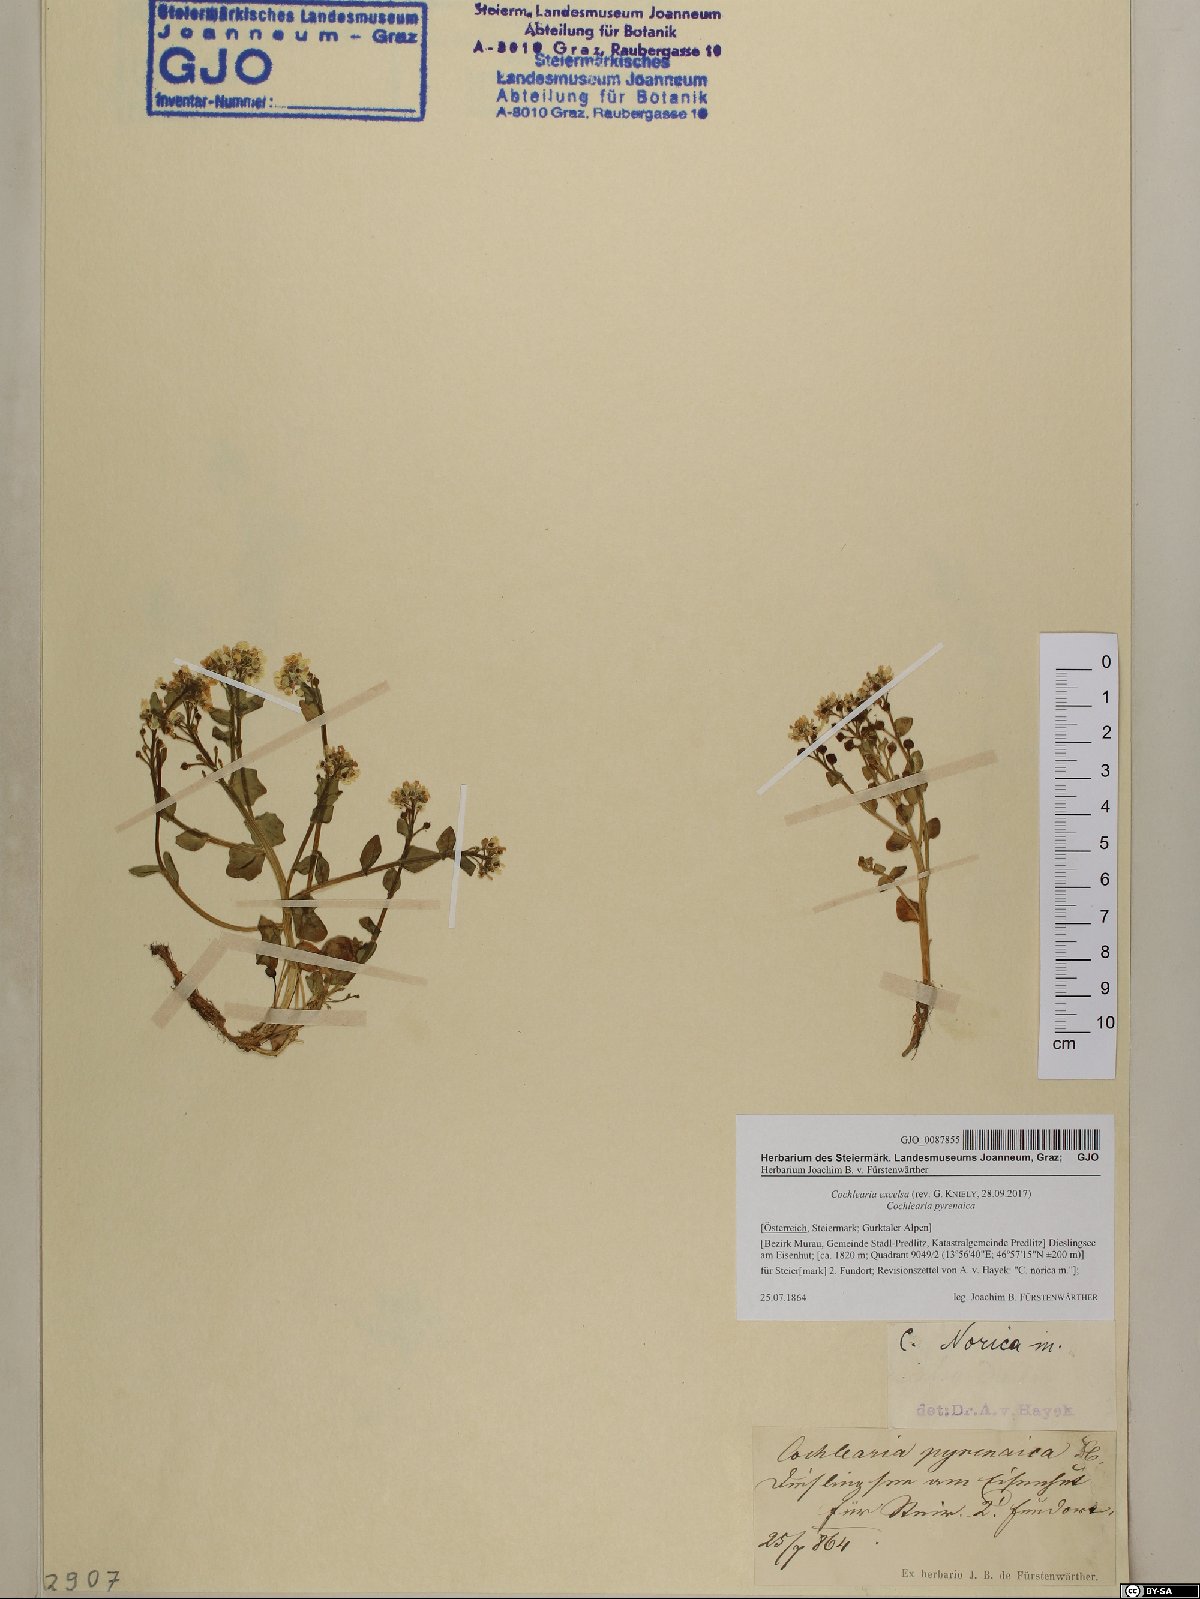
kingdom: Plantae
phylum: Tracheophyta
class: Magnoliopsida
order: Brassicales
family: Brassicaceae
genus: Cochlearia
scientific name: Cochlearia pyrenaica
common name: Upland scurvy-grass
